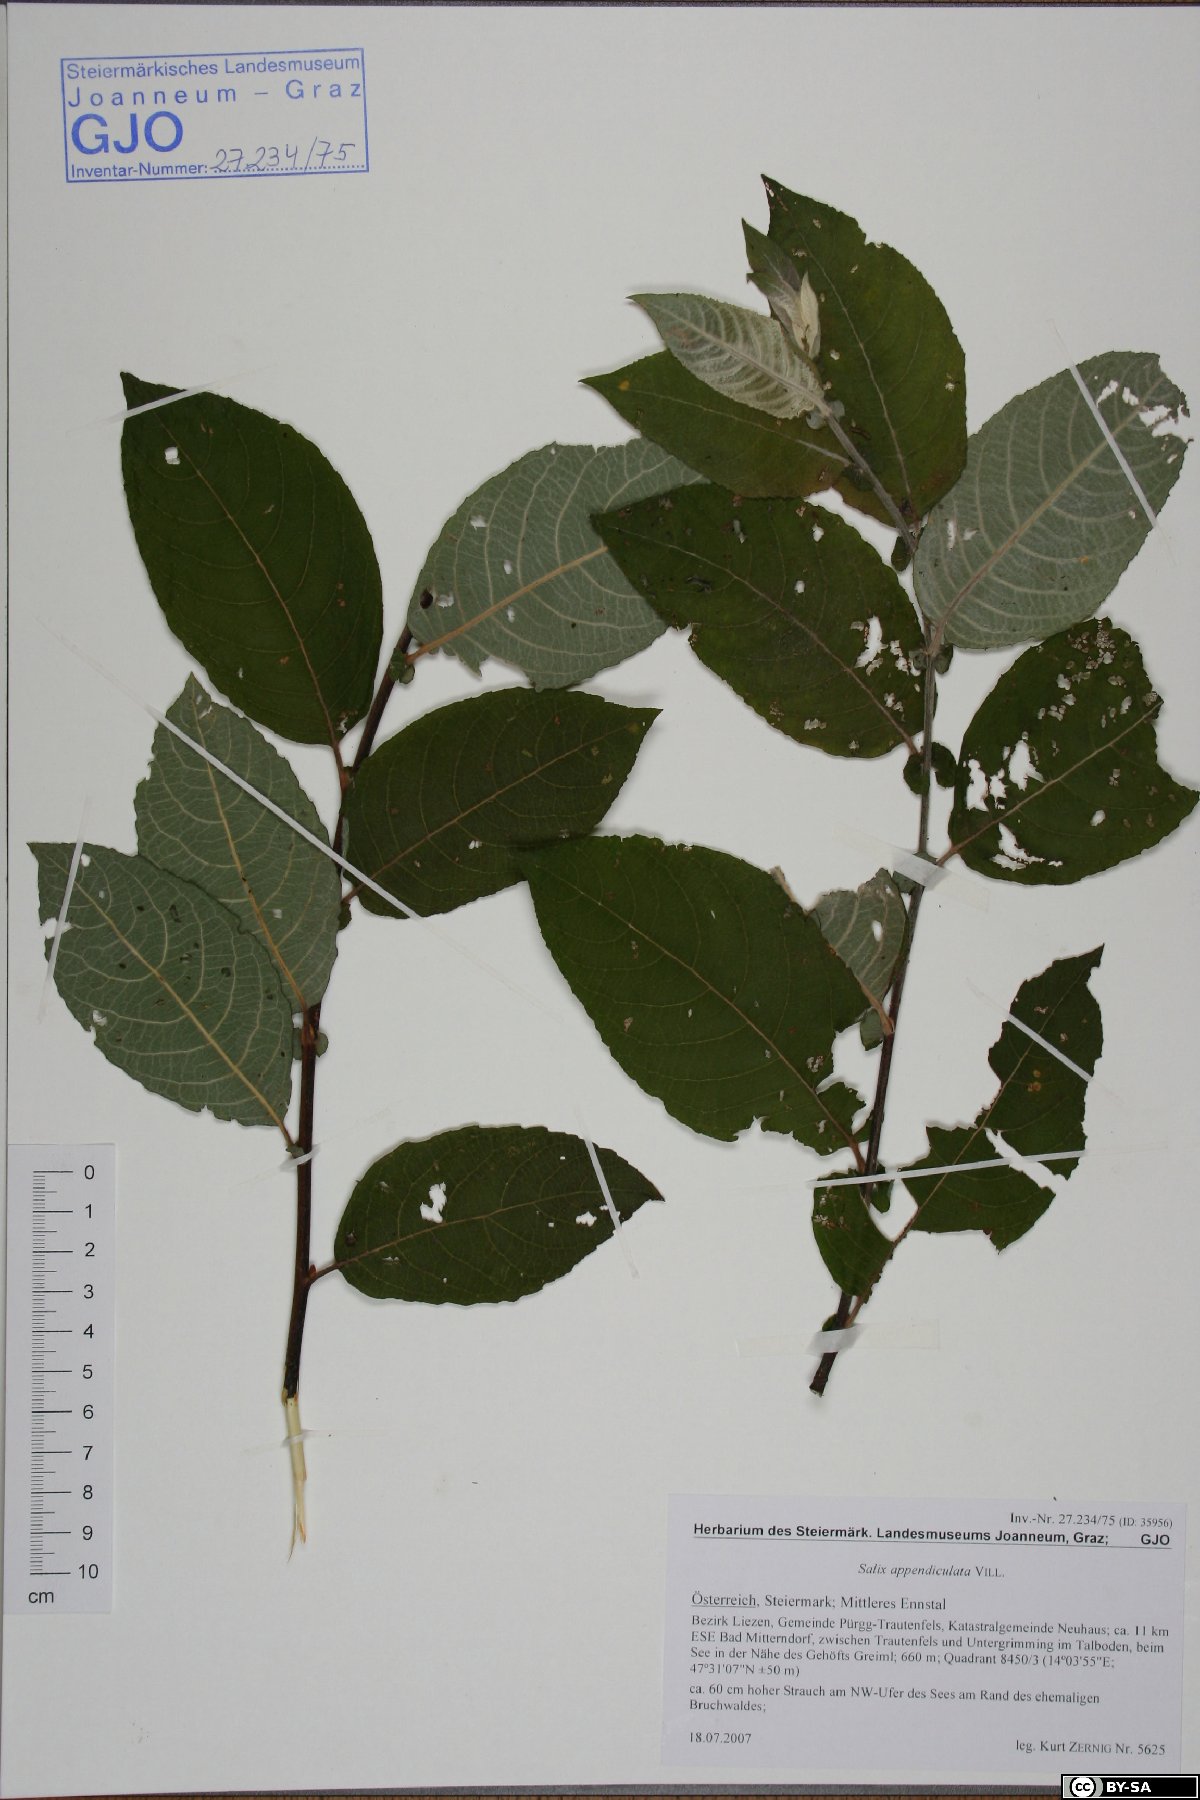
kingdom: Plantae
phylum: Tracheophyta
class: Magnoliopsida
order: Malpighiales
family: Salicaceae
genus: Salix
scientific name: Salix appendiculata
